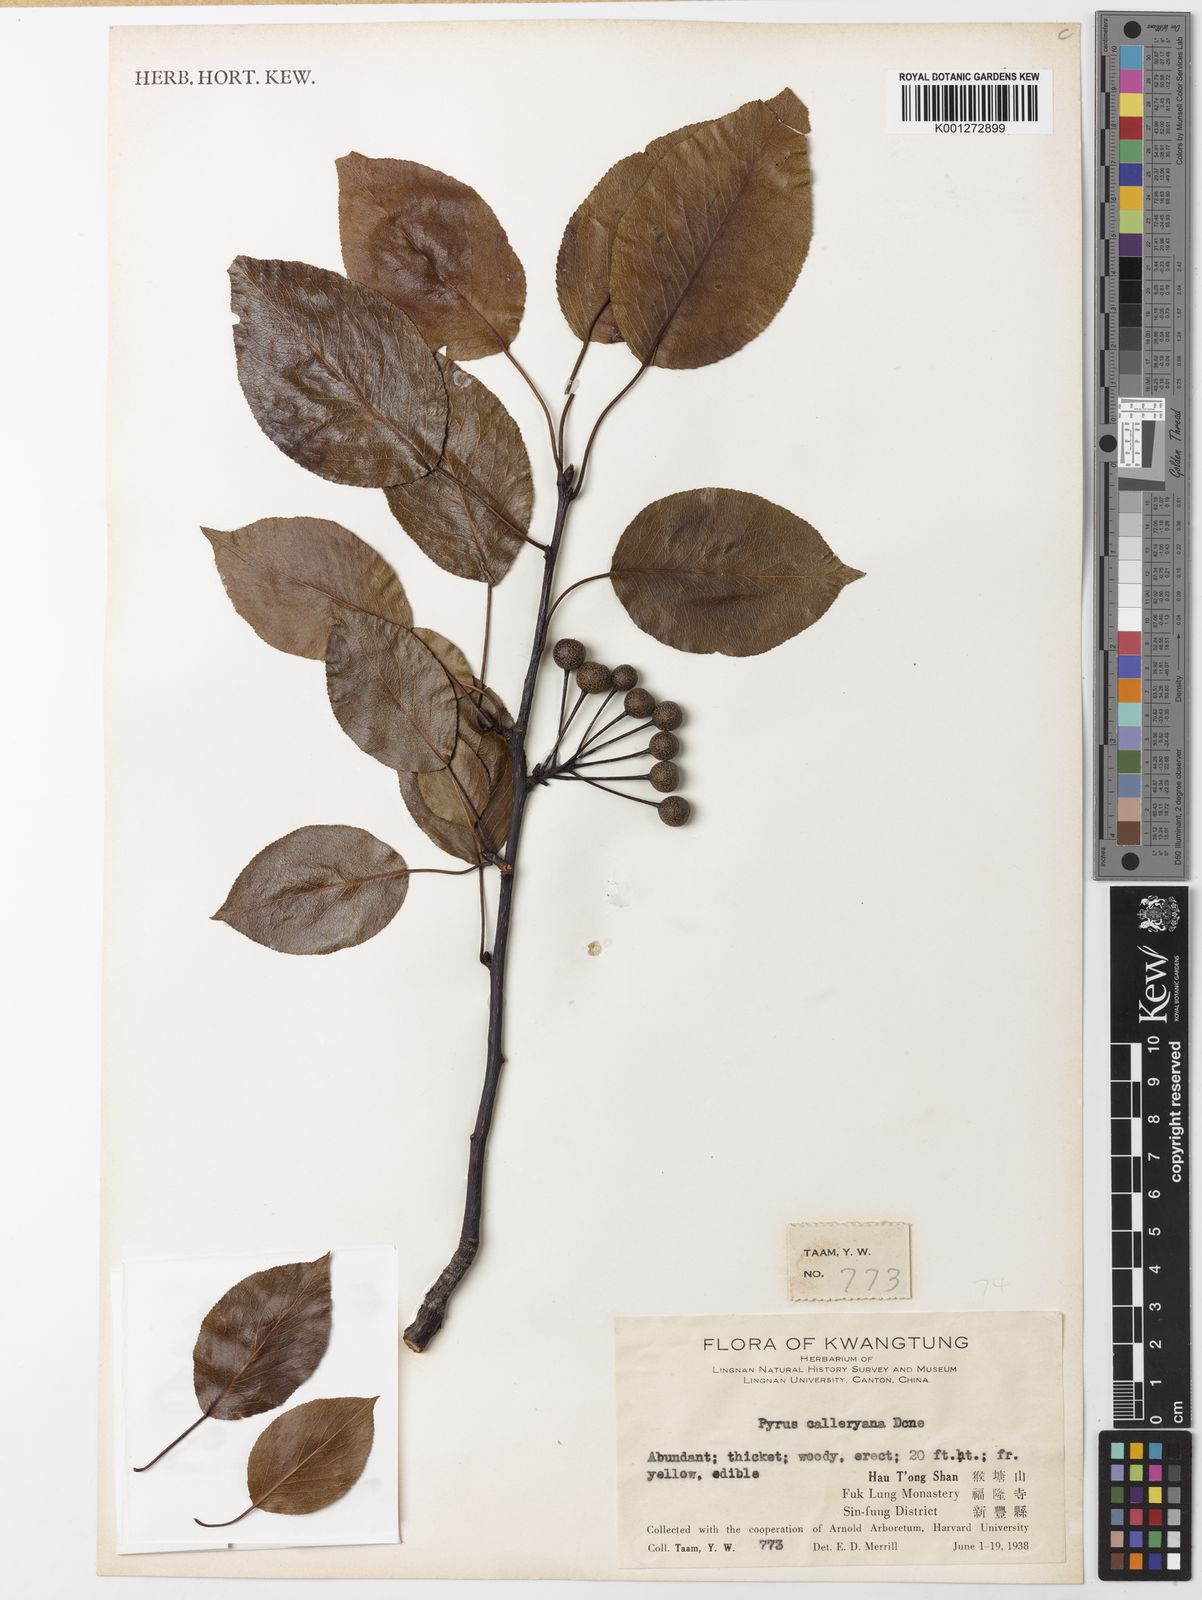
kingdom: Plantae
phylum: Tracheophyta
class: Magnoliopsida
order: Rosales
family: Rosaceae
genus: Pyrus
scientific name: Pyrus calleryana
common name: Callery pear
